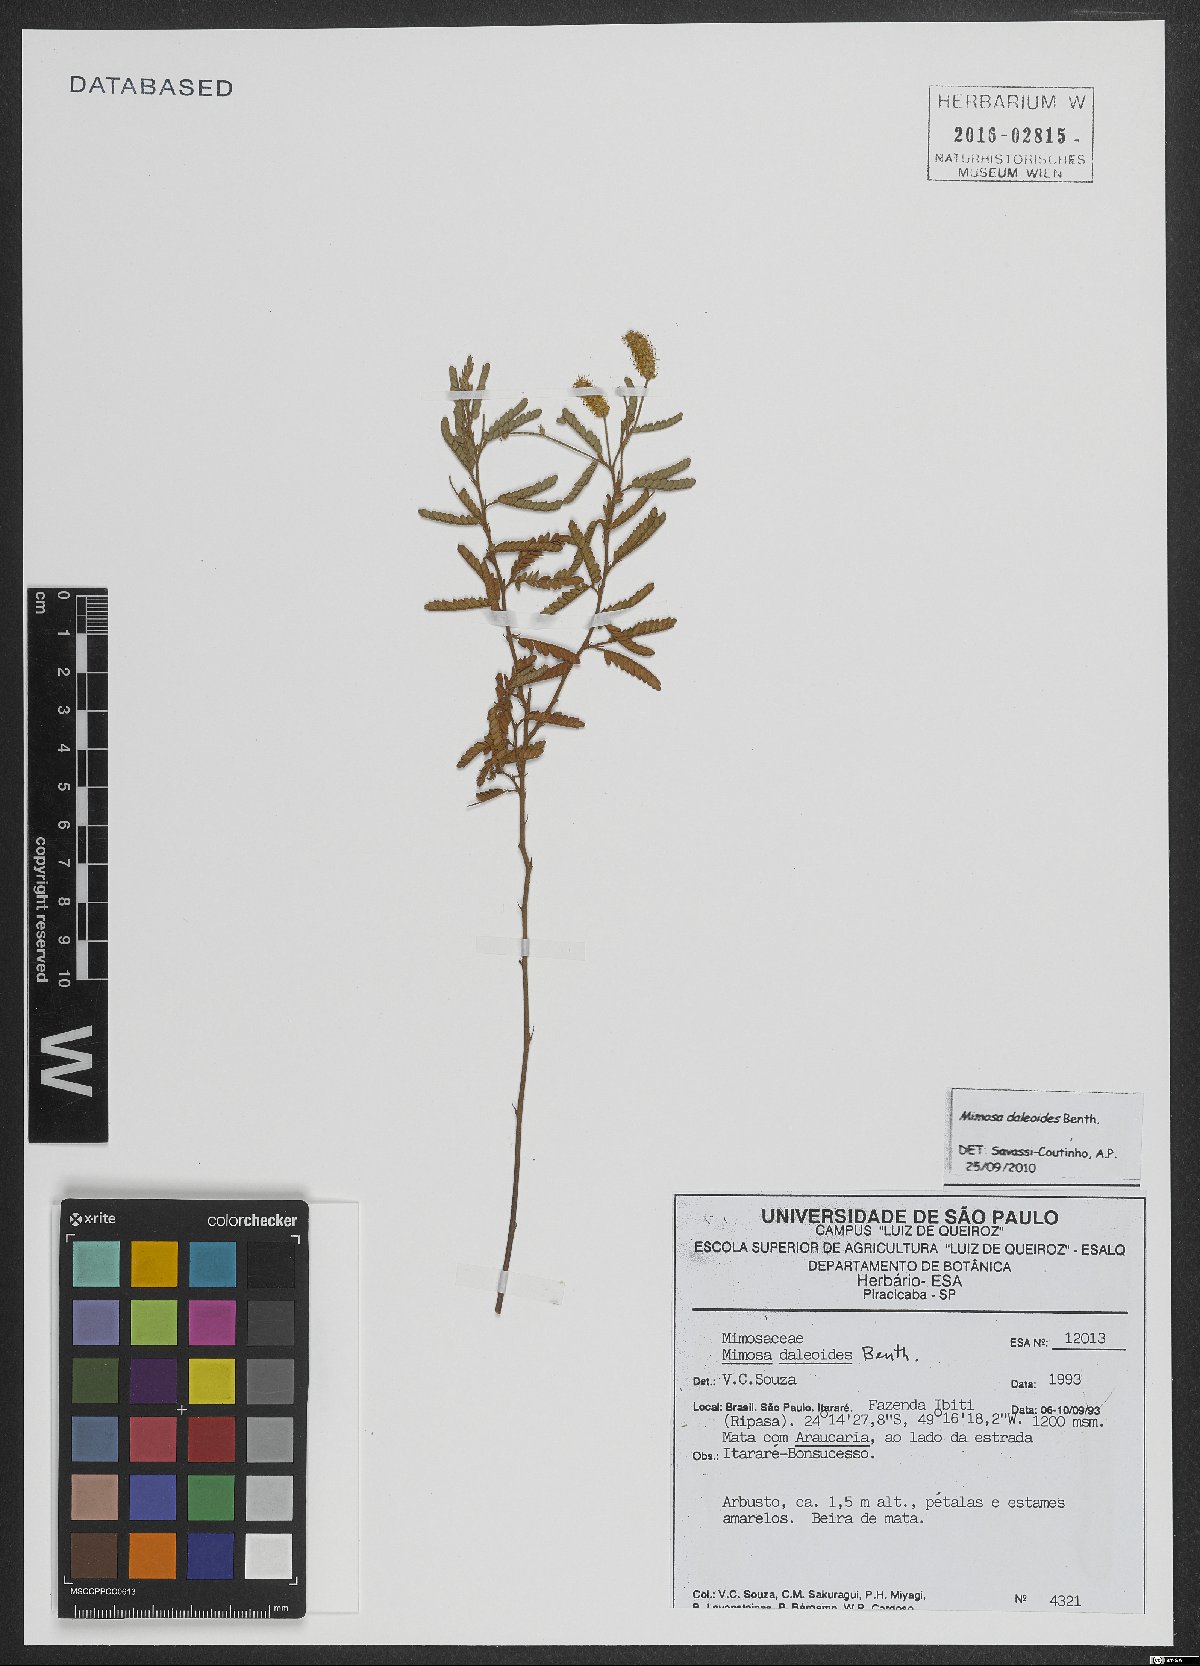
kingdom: Plantae
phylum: Tracheophyta
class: Magnoliopsida
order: Fabales
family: Fabaceae
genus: Mimosa
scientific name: Mimosa daleoides
